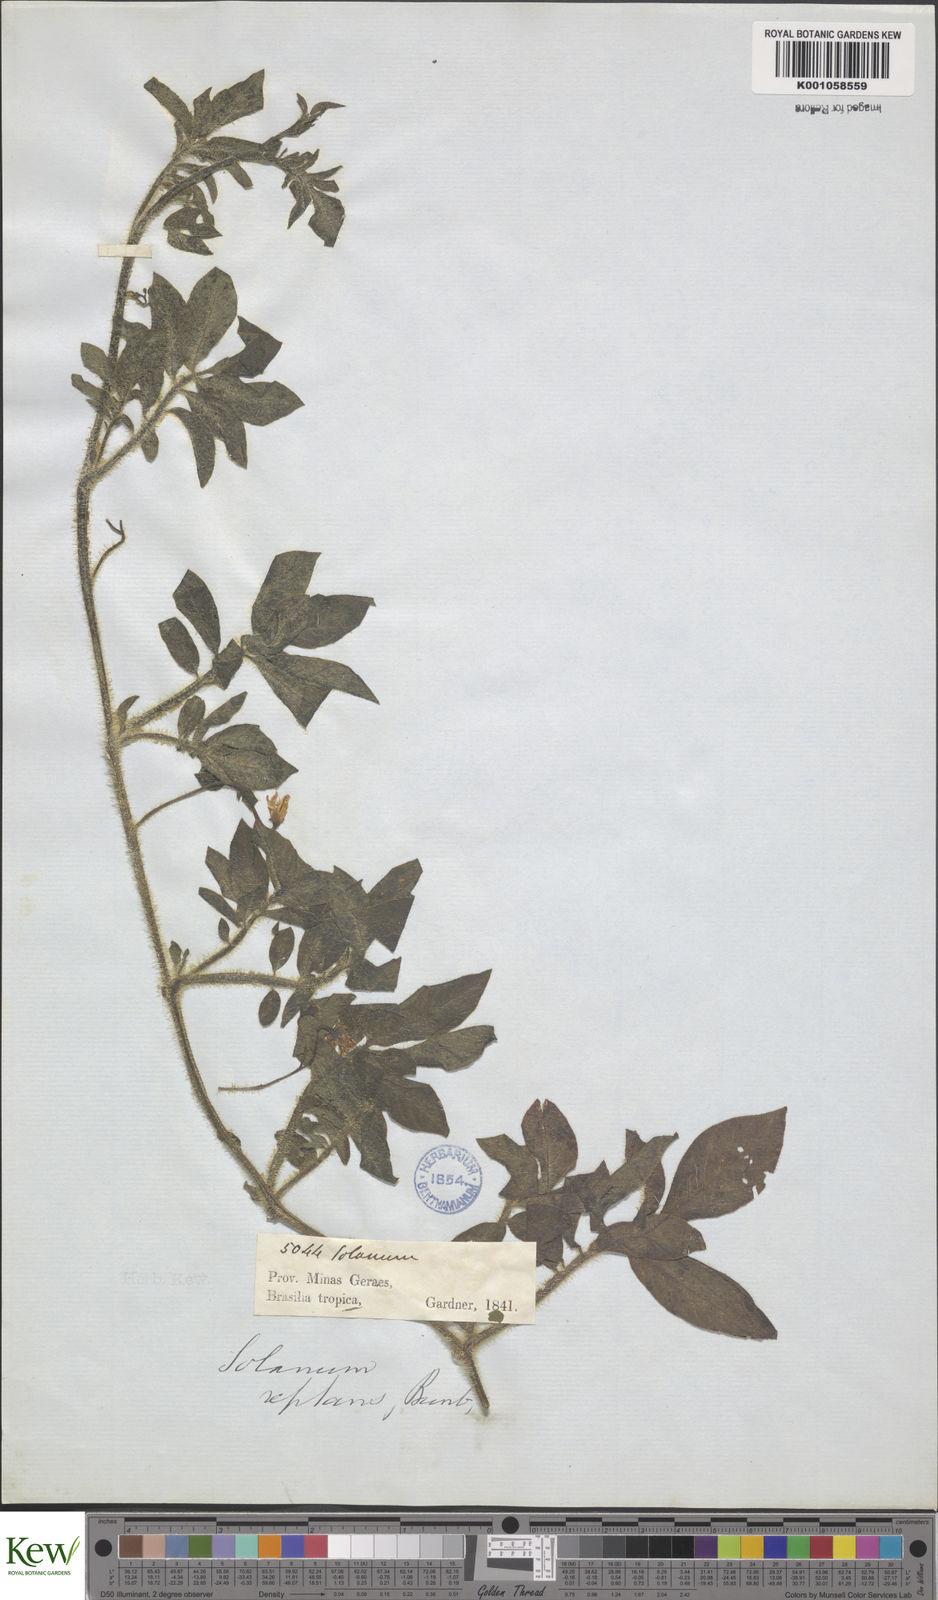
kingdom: Plantae
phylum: Tracheophyta
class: Magnoliopsida
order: Solanales
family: Solanaceae
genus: Solanum
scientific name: Solanum reptans
